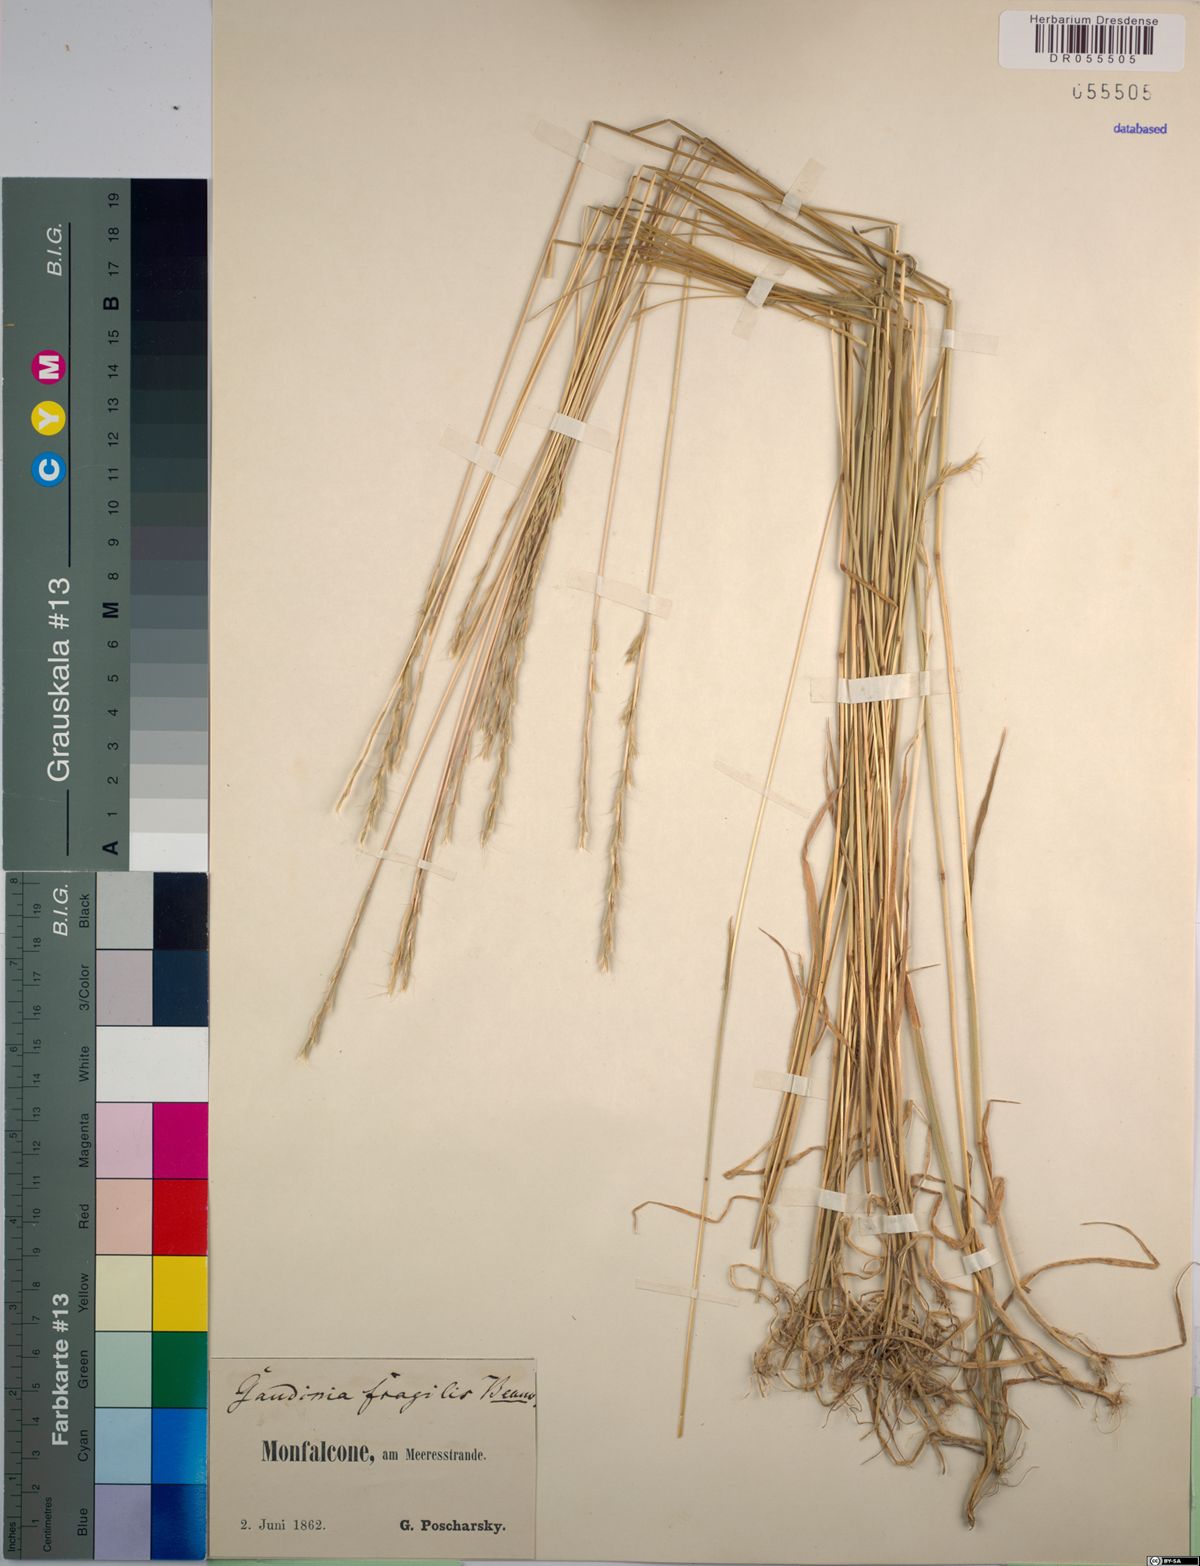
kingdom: Plantae
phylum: Tracheophyta
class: Liliopsida
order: Poales
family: Poaceae
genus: Gaudinia
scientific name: Gaudinia fragilis
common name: French oat-grass
